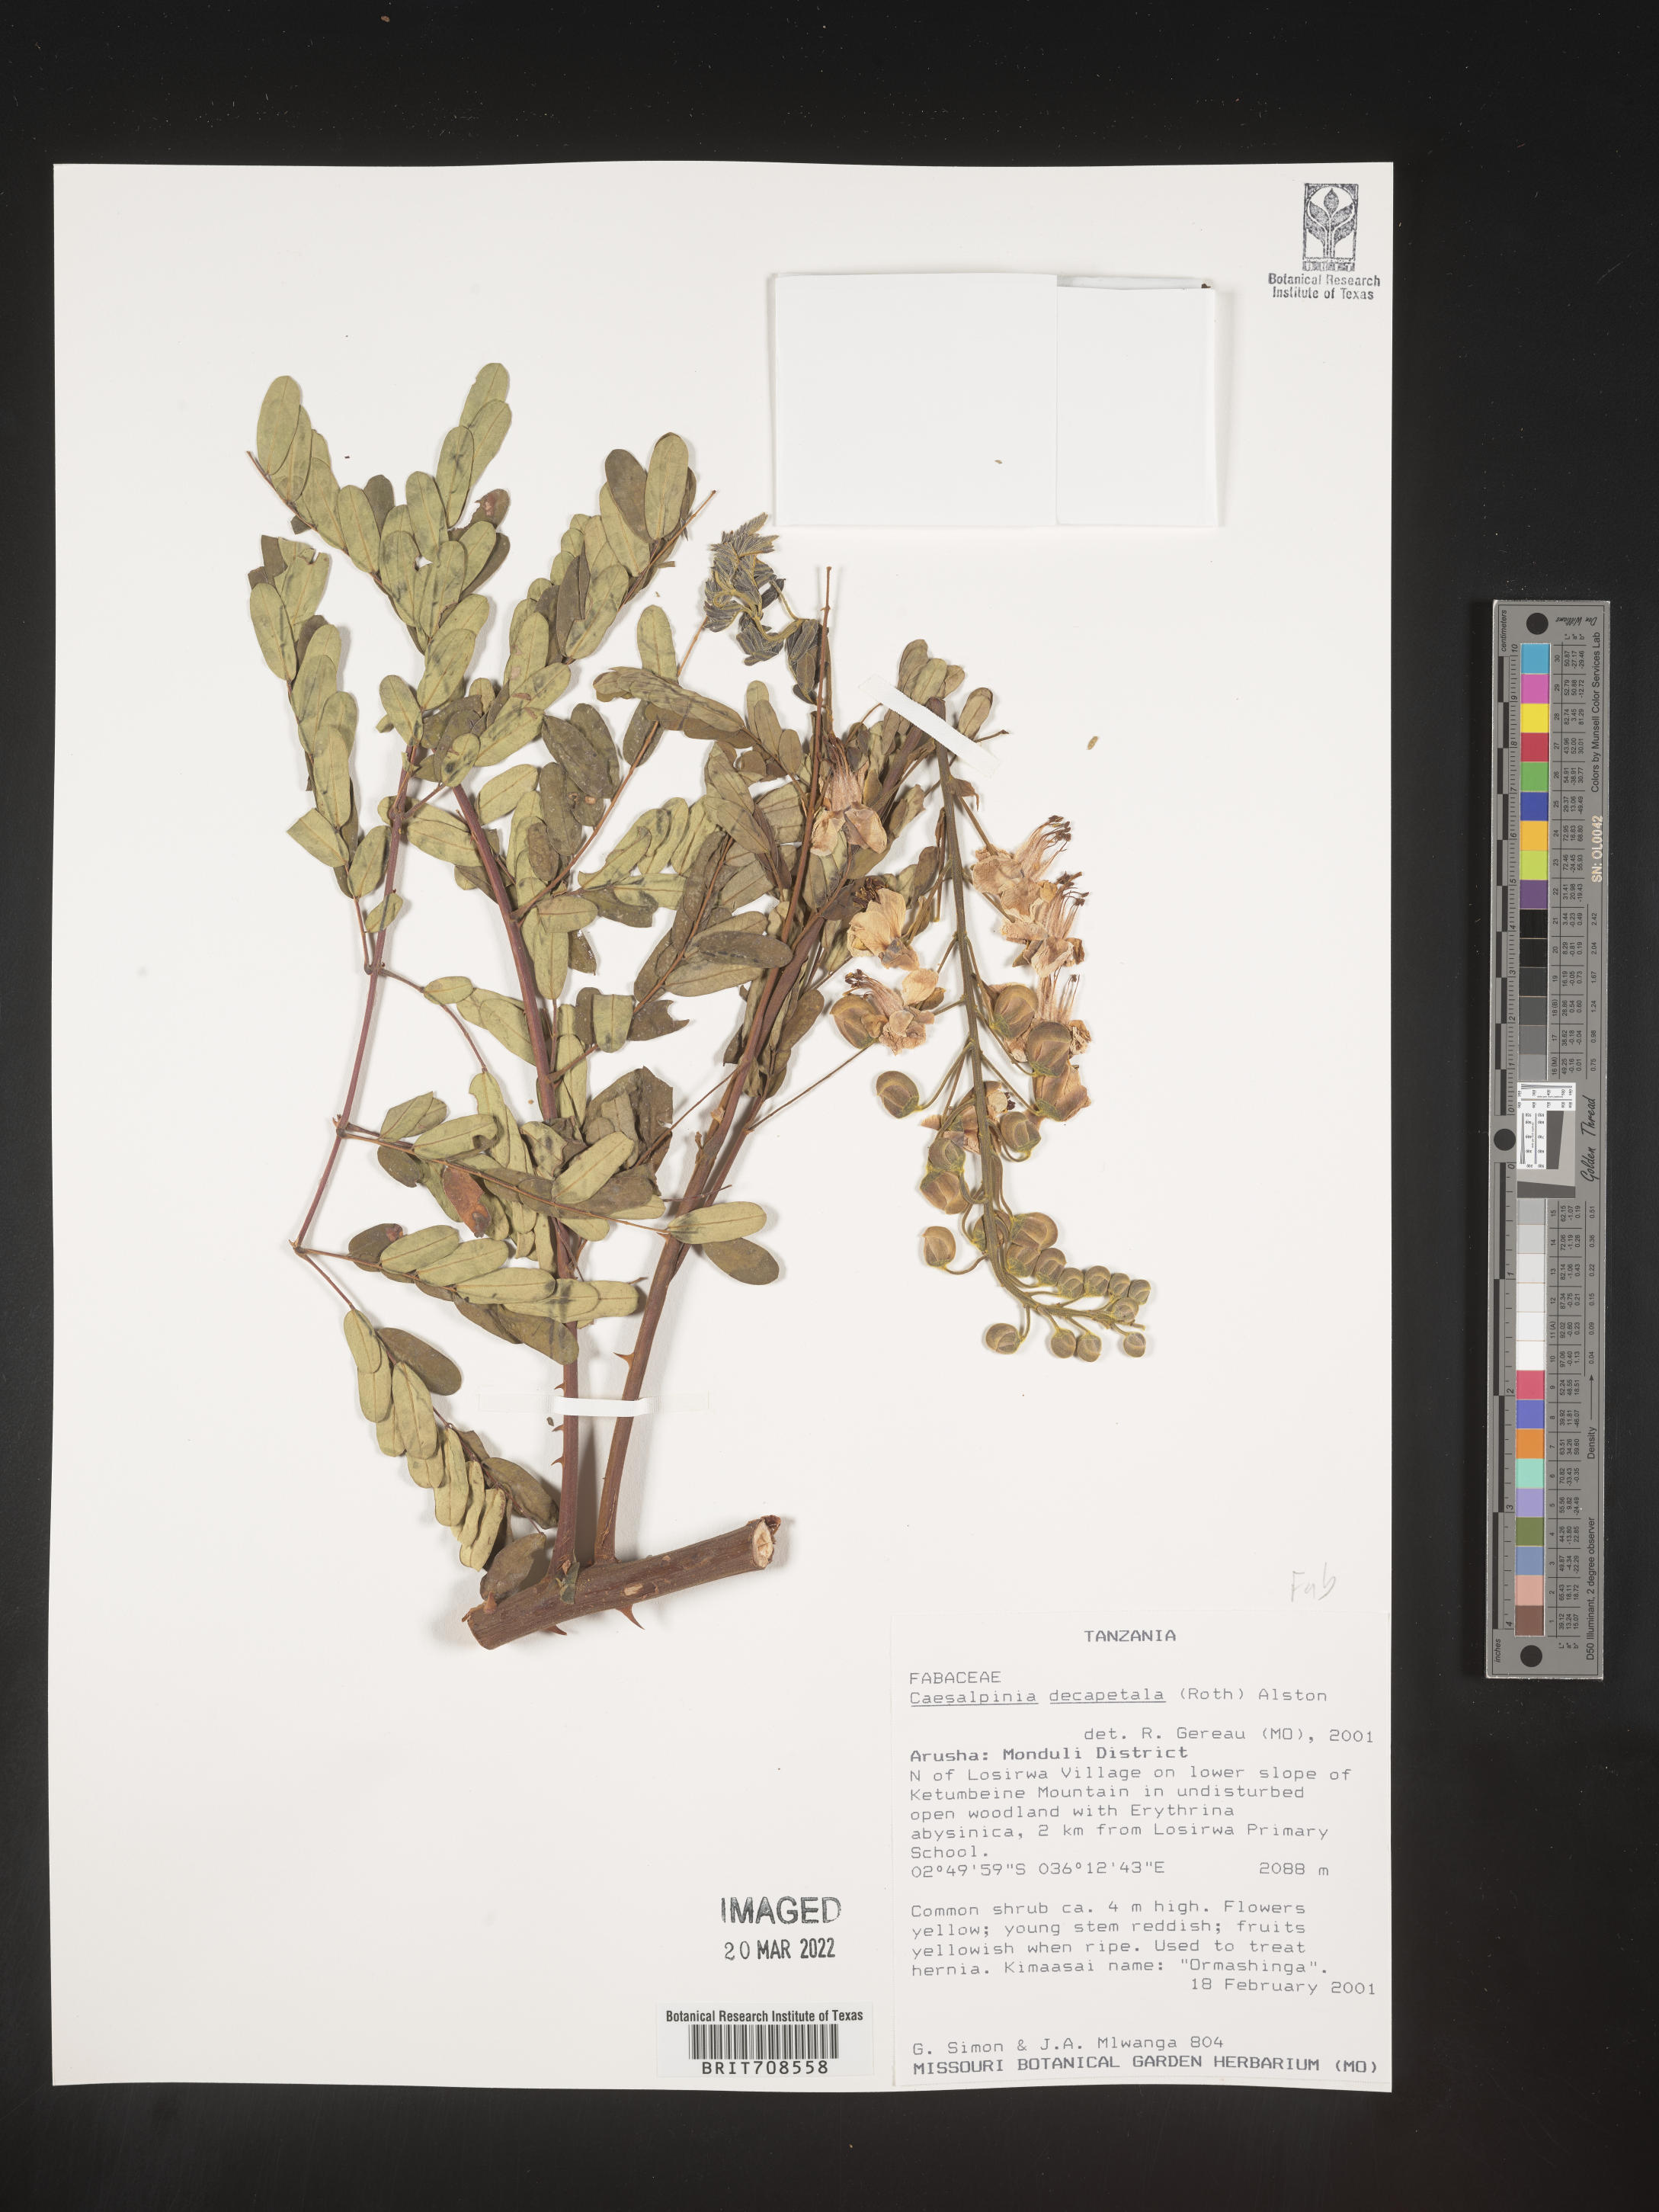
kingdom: Plantae
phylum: Tracheophyta
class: Magnoliopsida
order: Fabales
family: Fabaceae
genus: Caesalpinia
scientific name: Caesalpinia
